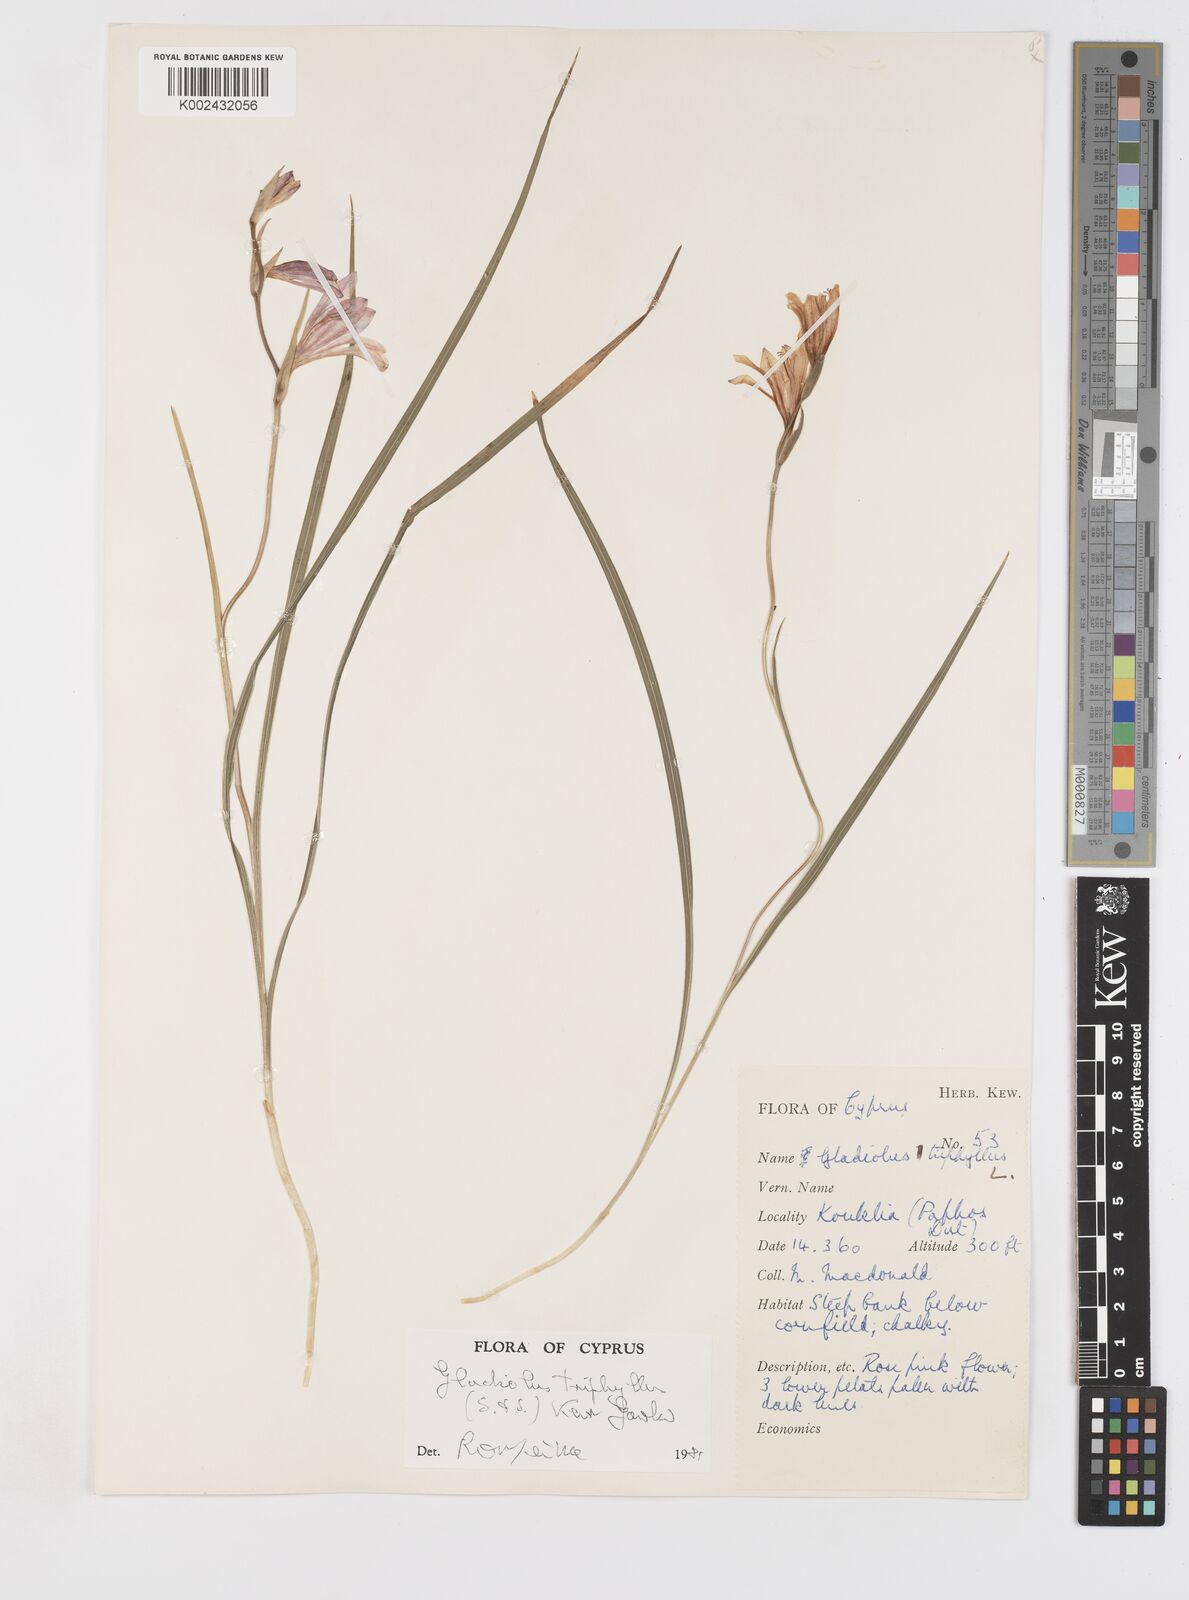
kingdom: Plantae
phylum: Tracheophyta
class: Liliopsida
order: Asparagales
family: Iridaceae
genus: Gladiolus
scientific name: Gladiolus triphyllus
